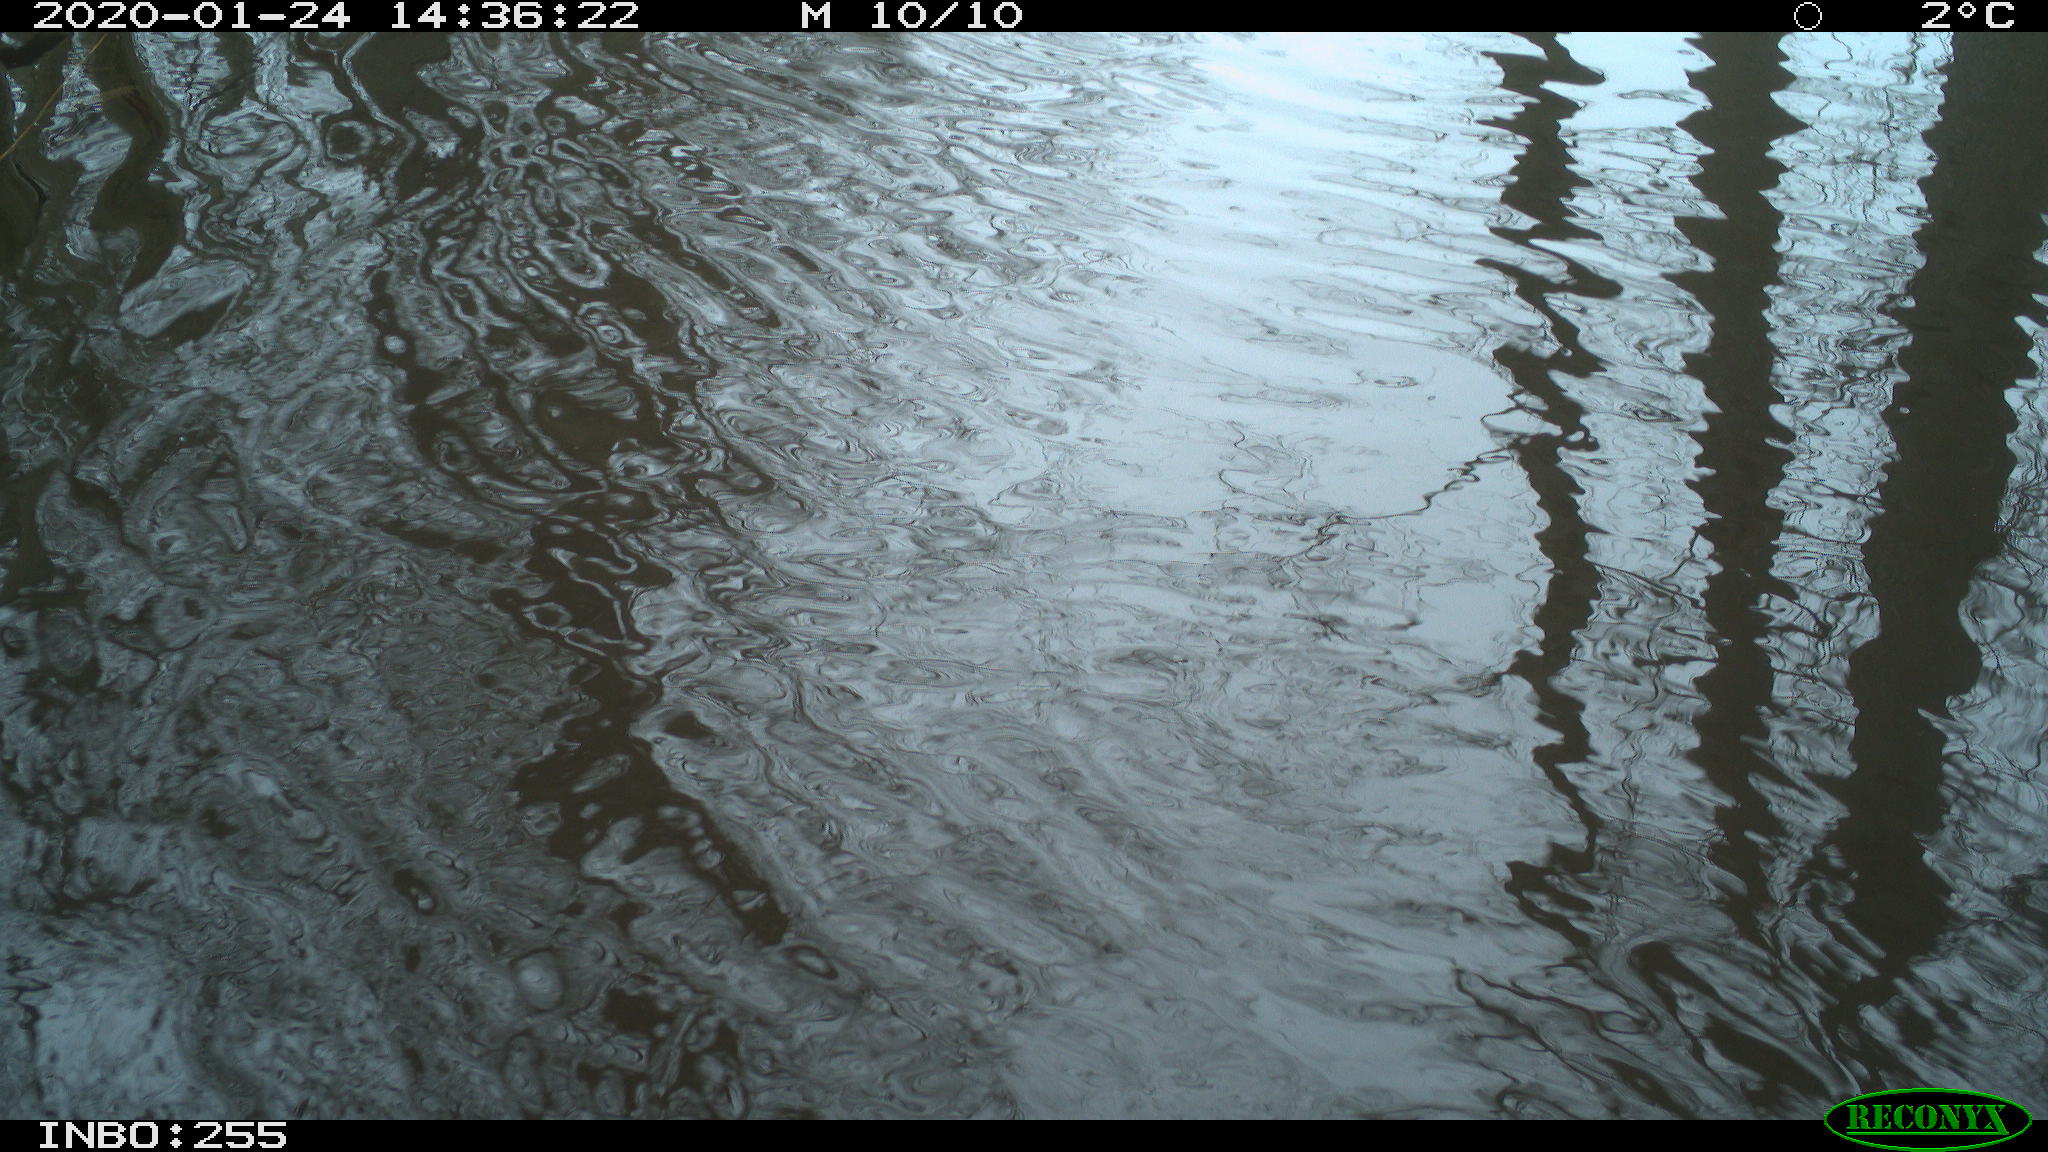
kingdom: Animalia
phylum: Chordata
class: Aves
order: Gruiformes
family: Rallidae
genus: Gallinula
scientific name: Gallinula chloropus
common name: Common moorhen
